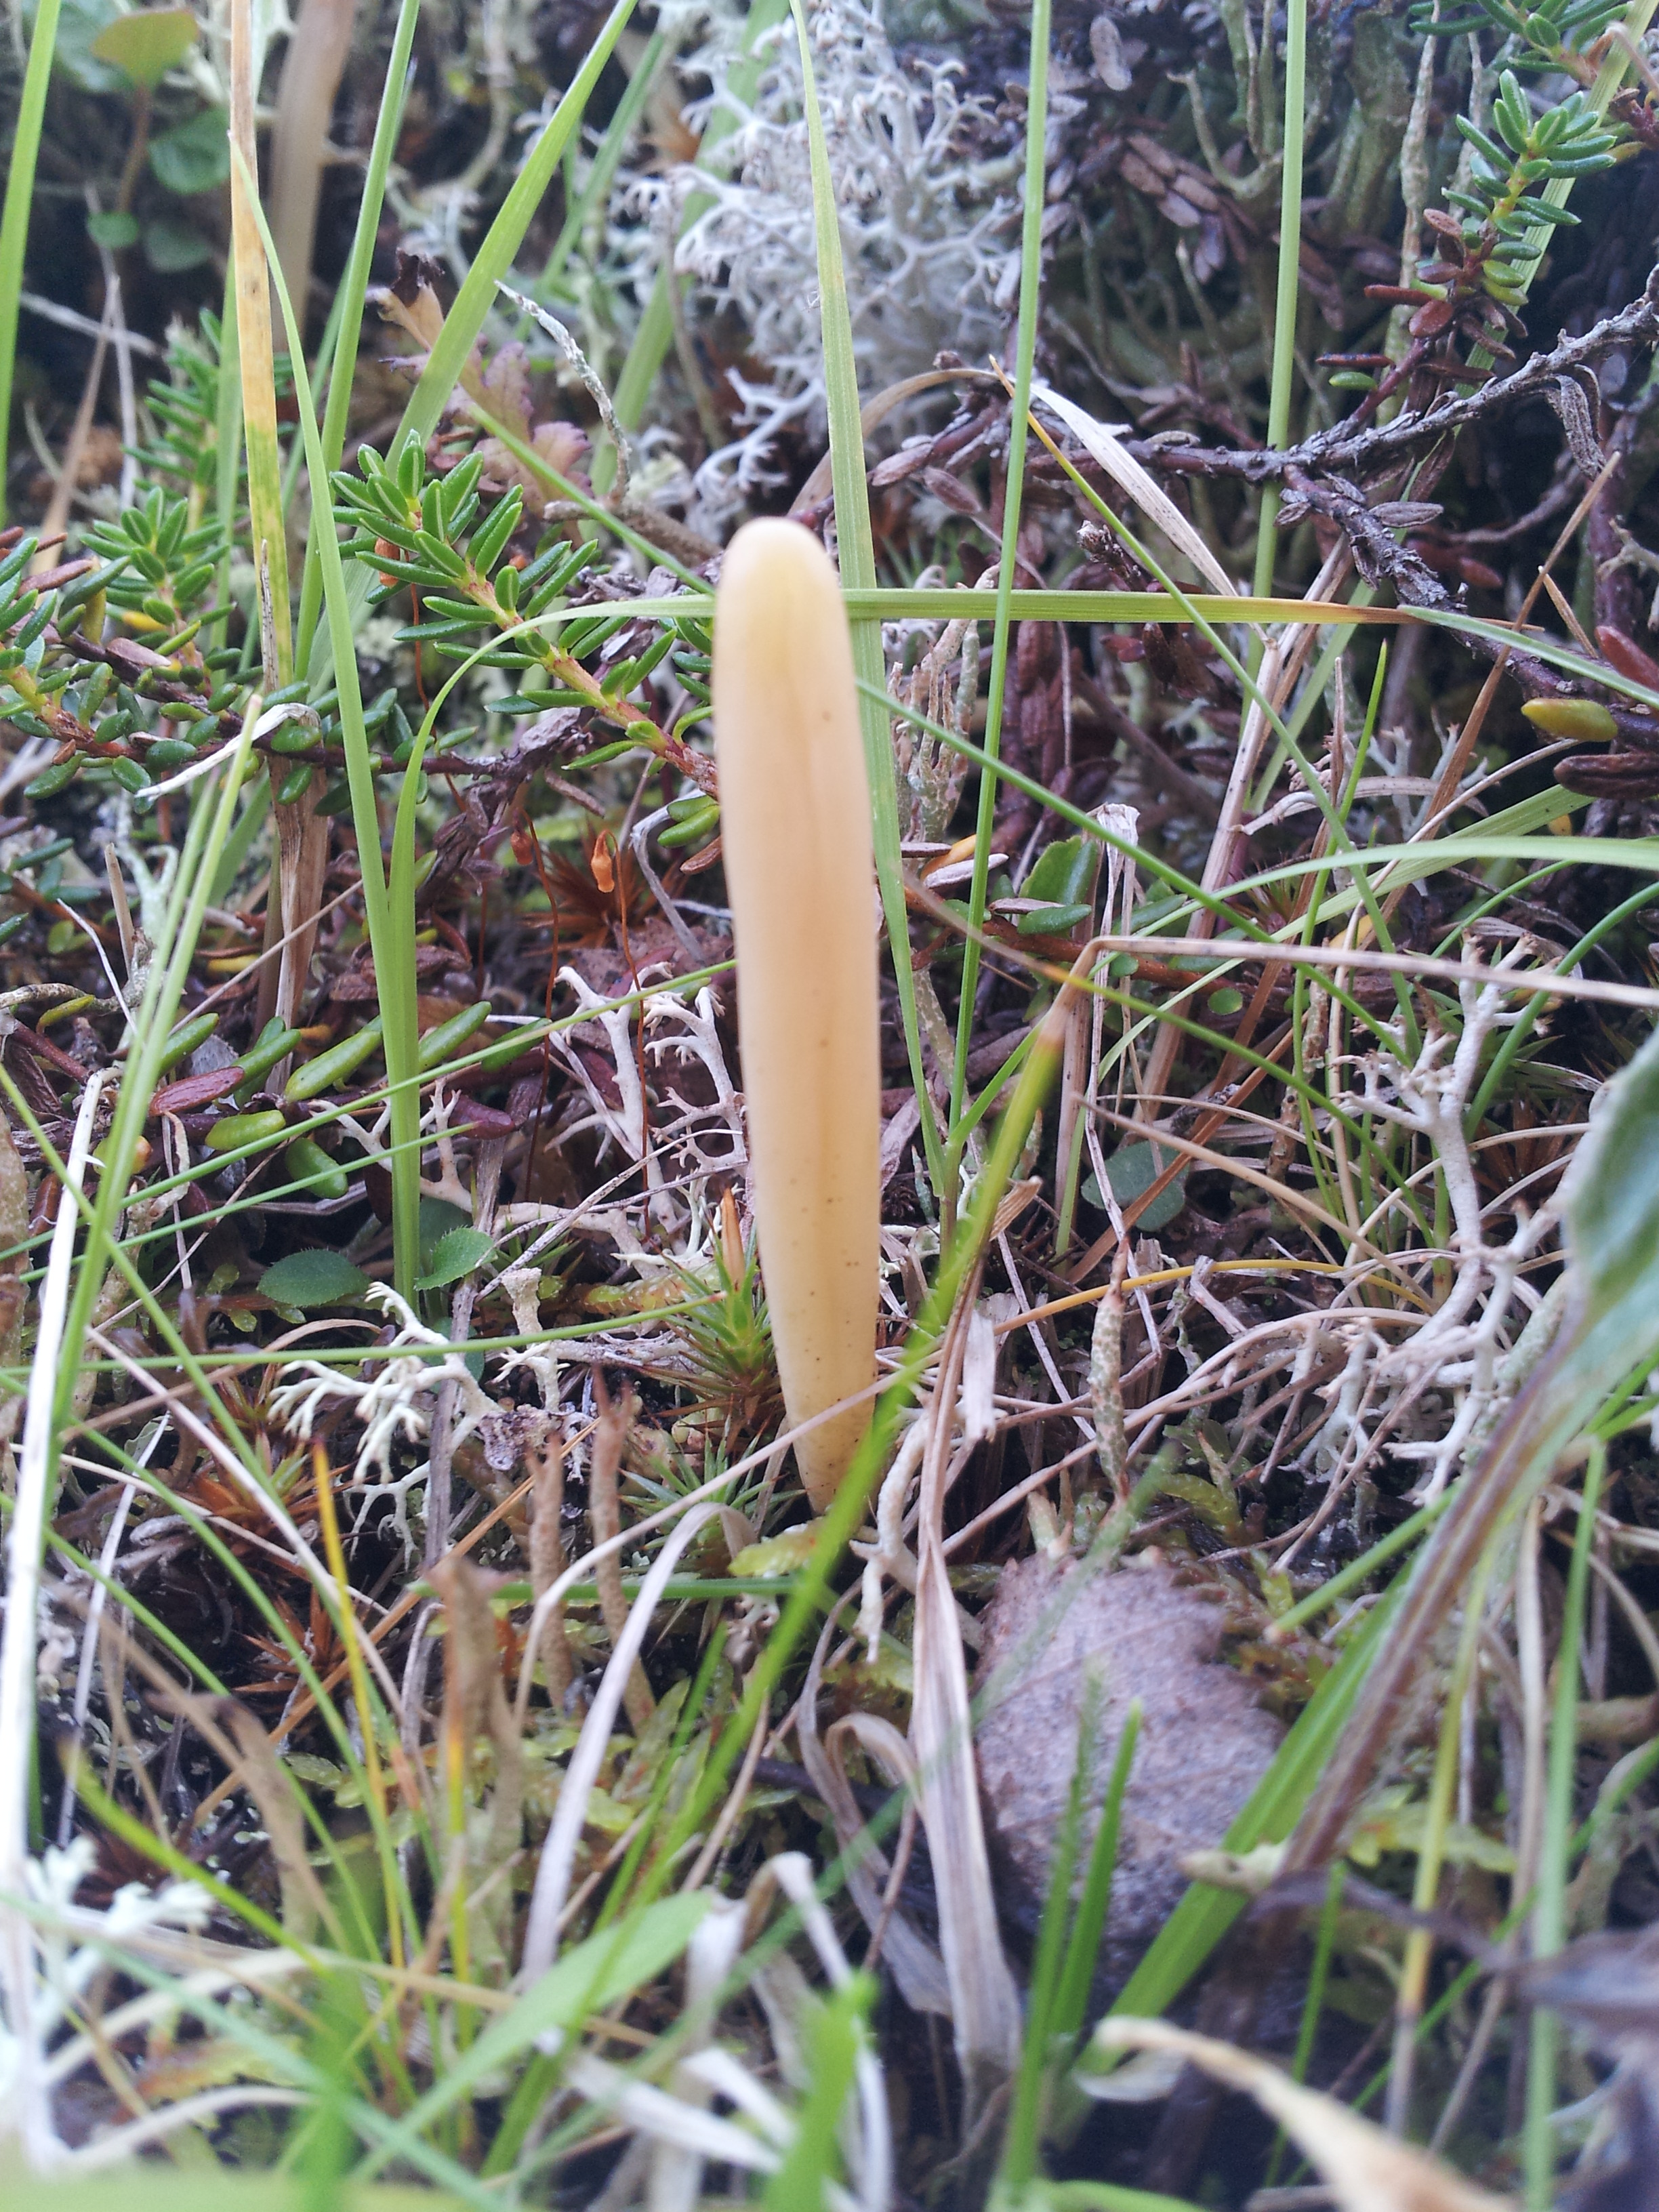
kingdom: Fungi
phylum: Basidiomycota
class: Agaricomycetes
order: Agaricales
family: Clavariaceae
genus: Clavulinopsis
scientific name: Clavulinopsis
